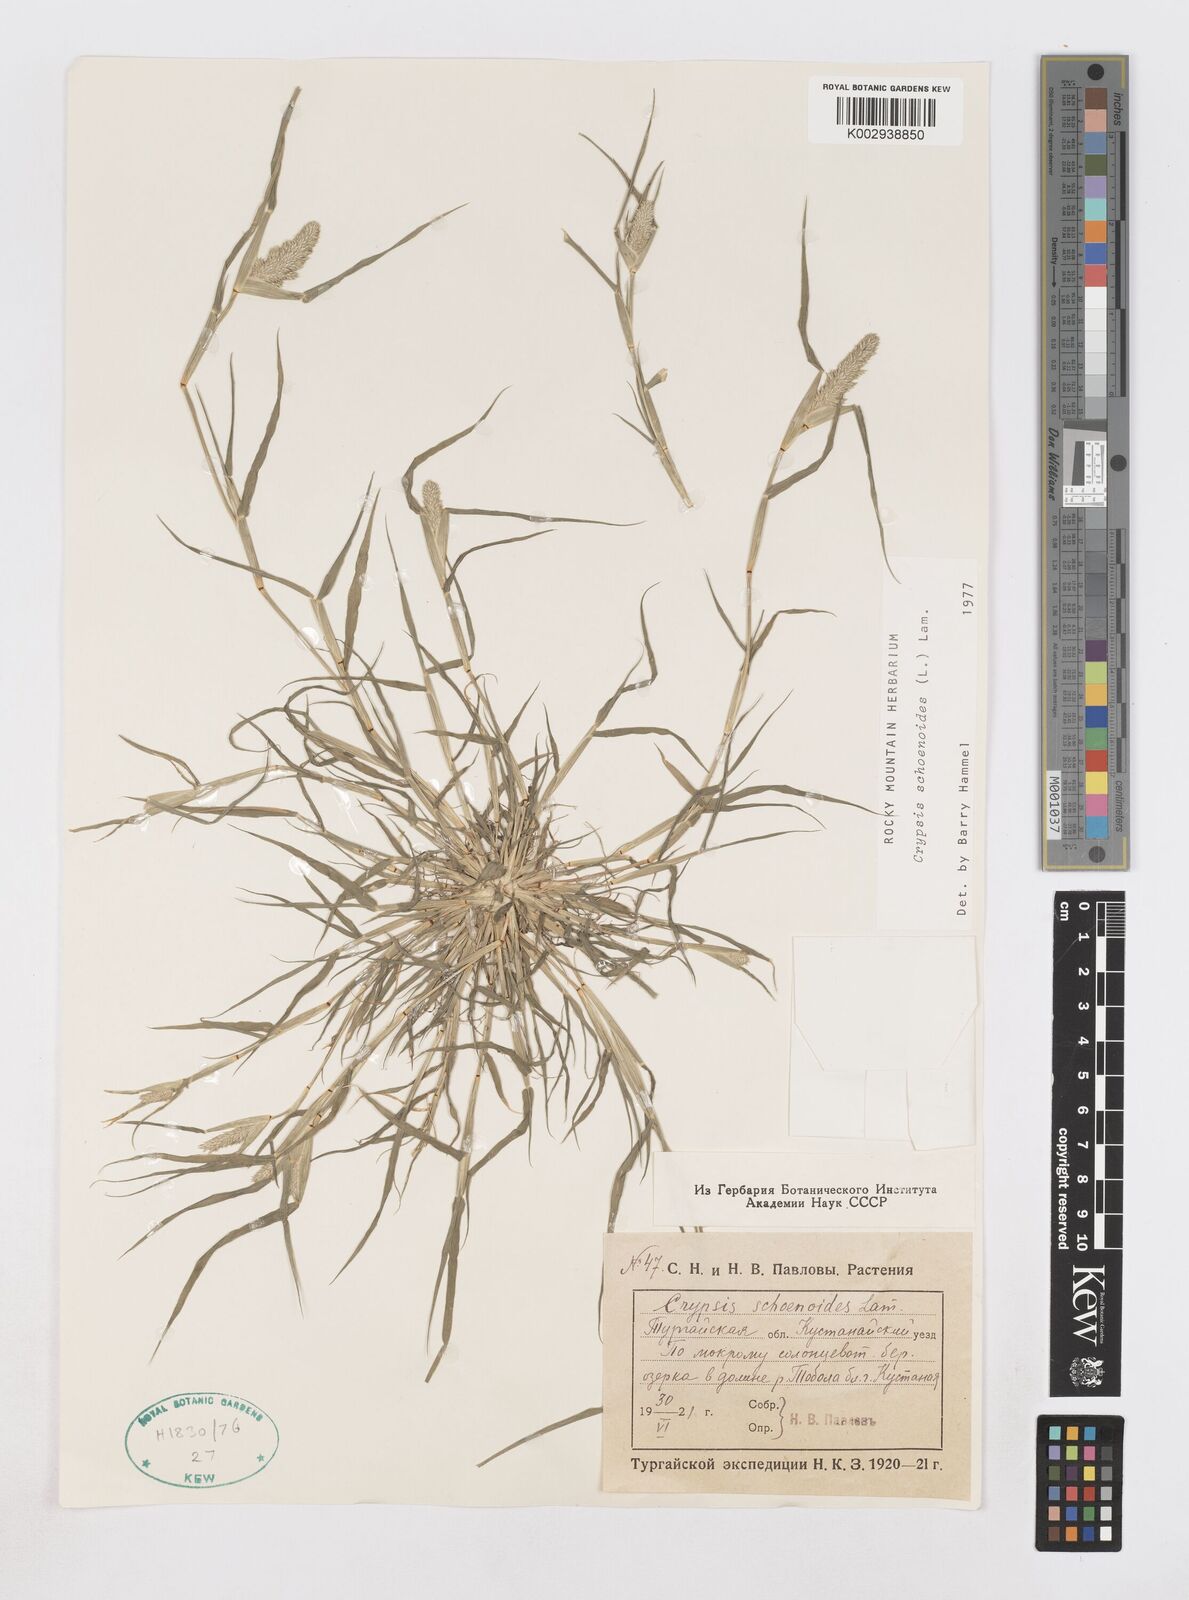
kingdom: Plantae
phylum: Tracheophyta
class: Liliopsida
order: Poales
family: Poaceae
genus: Sporobolus
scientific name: Sporobolus schoenoides
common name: Rush-like timothy
